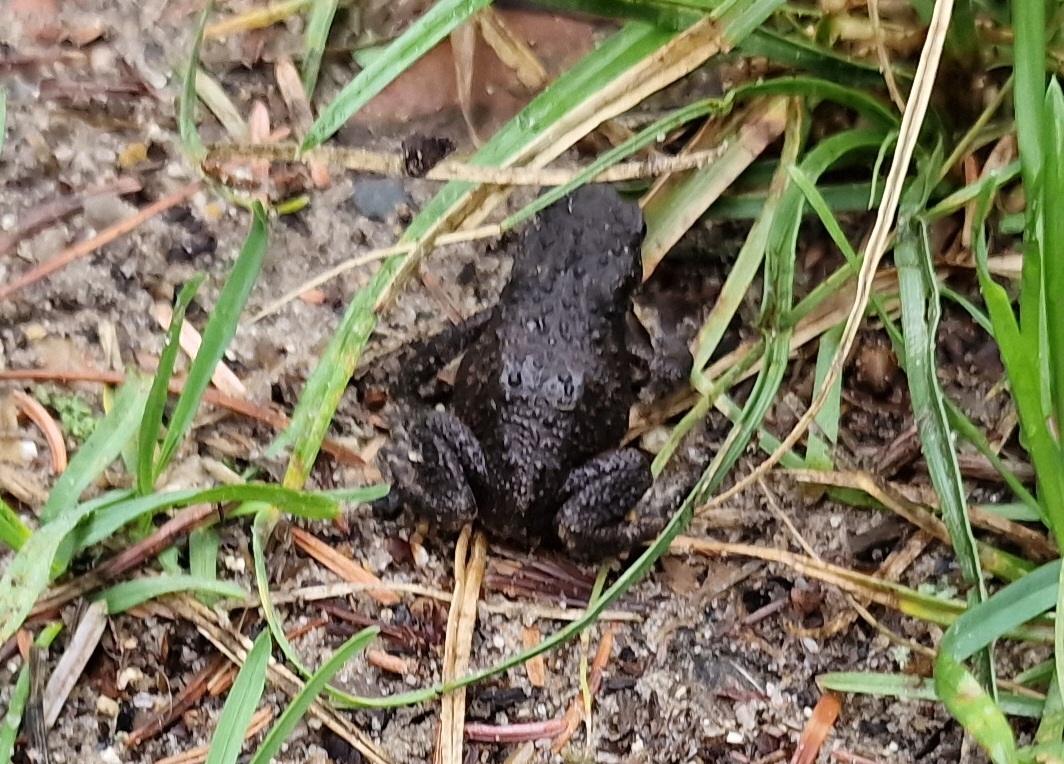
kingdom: Animalia
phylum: Chordata
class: Amphibia
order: Anura
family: Bufonidae
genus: Bufo
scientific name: Bufo bufo
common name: Skrubtudse
